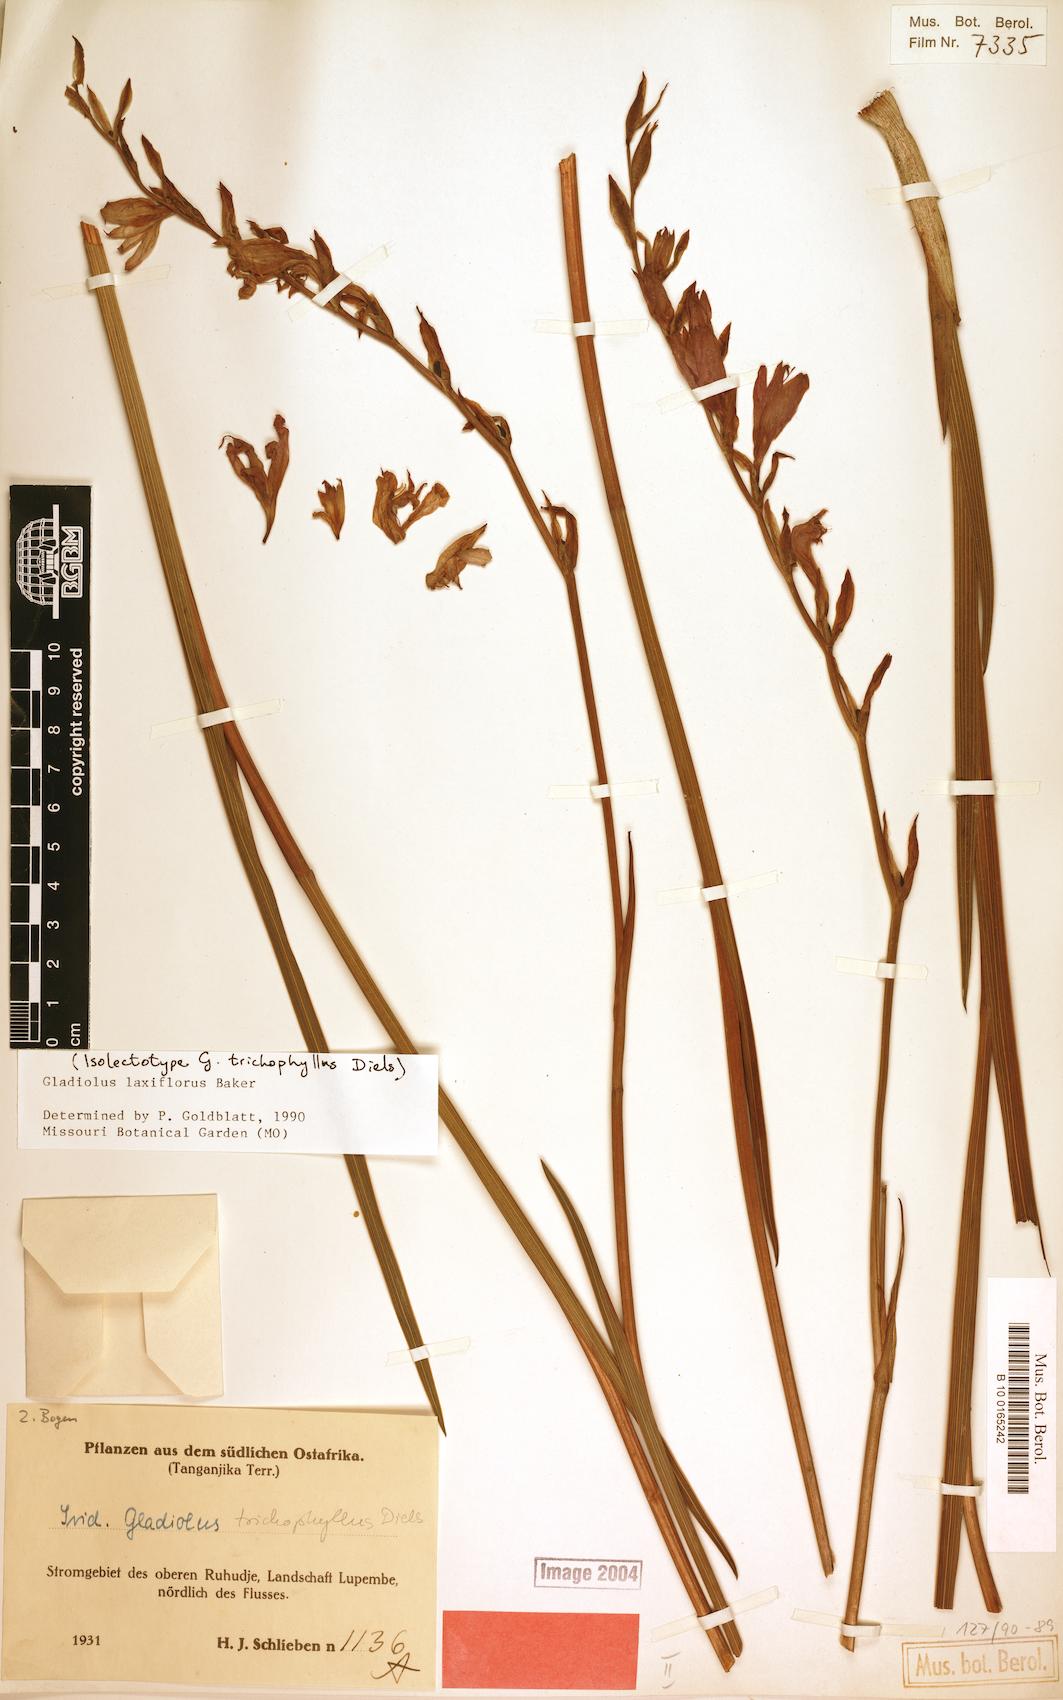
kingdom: Plantae
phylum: Tracheophyta
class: Liliopsida
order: Asparagales
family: Iridaceae
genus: Gladiolus
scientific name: Gladiolus laxiflorus
